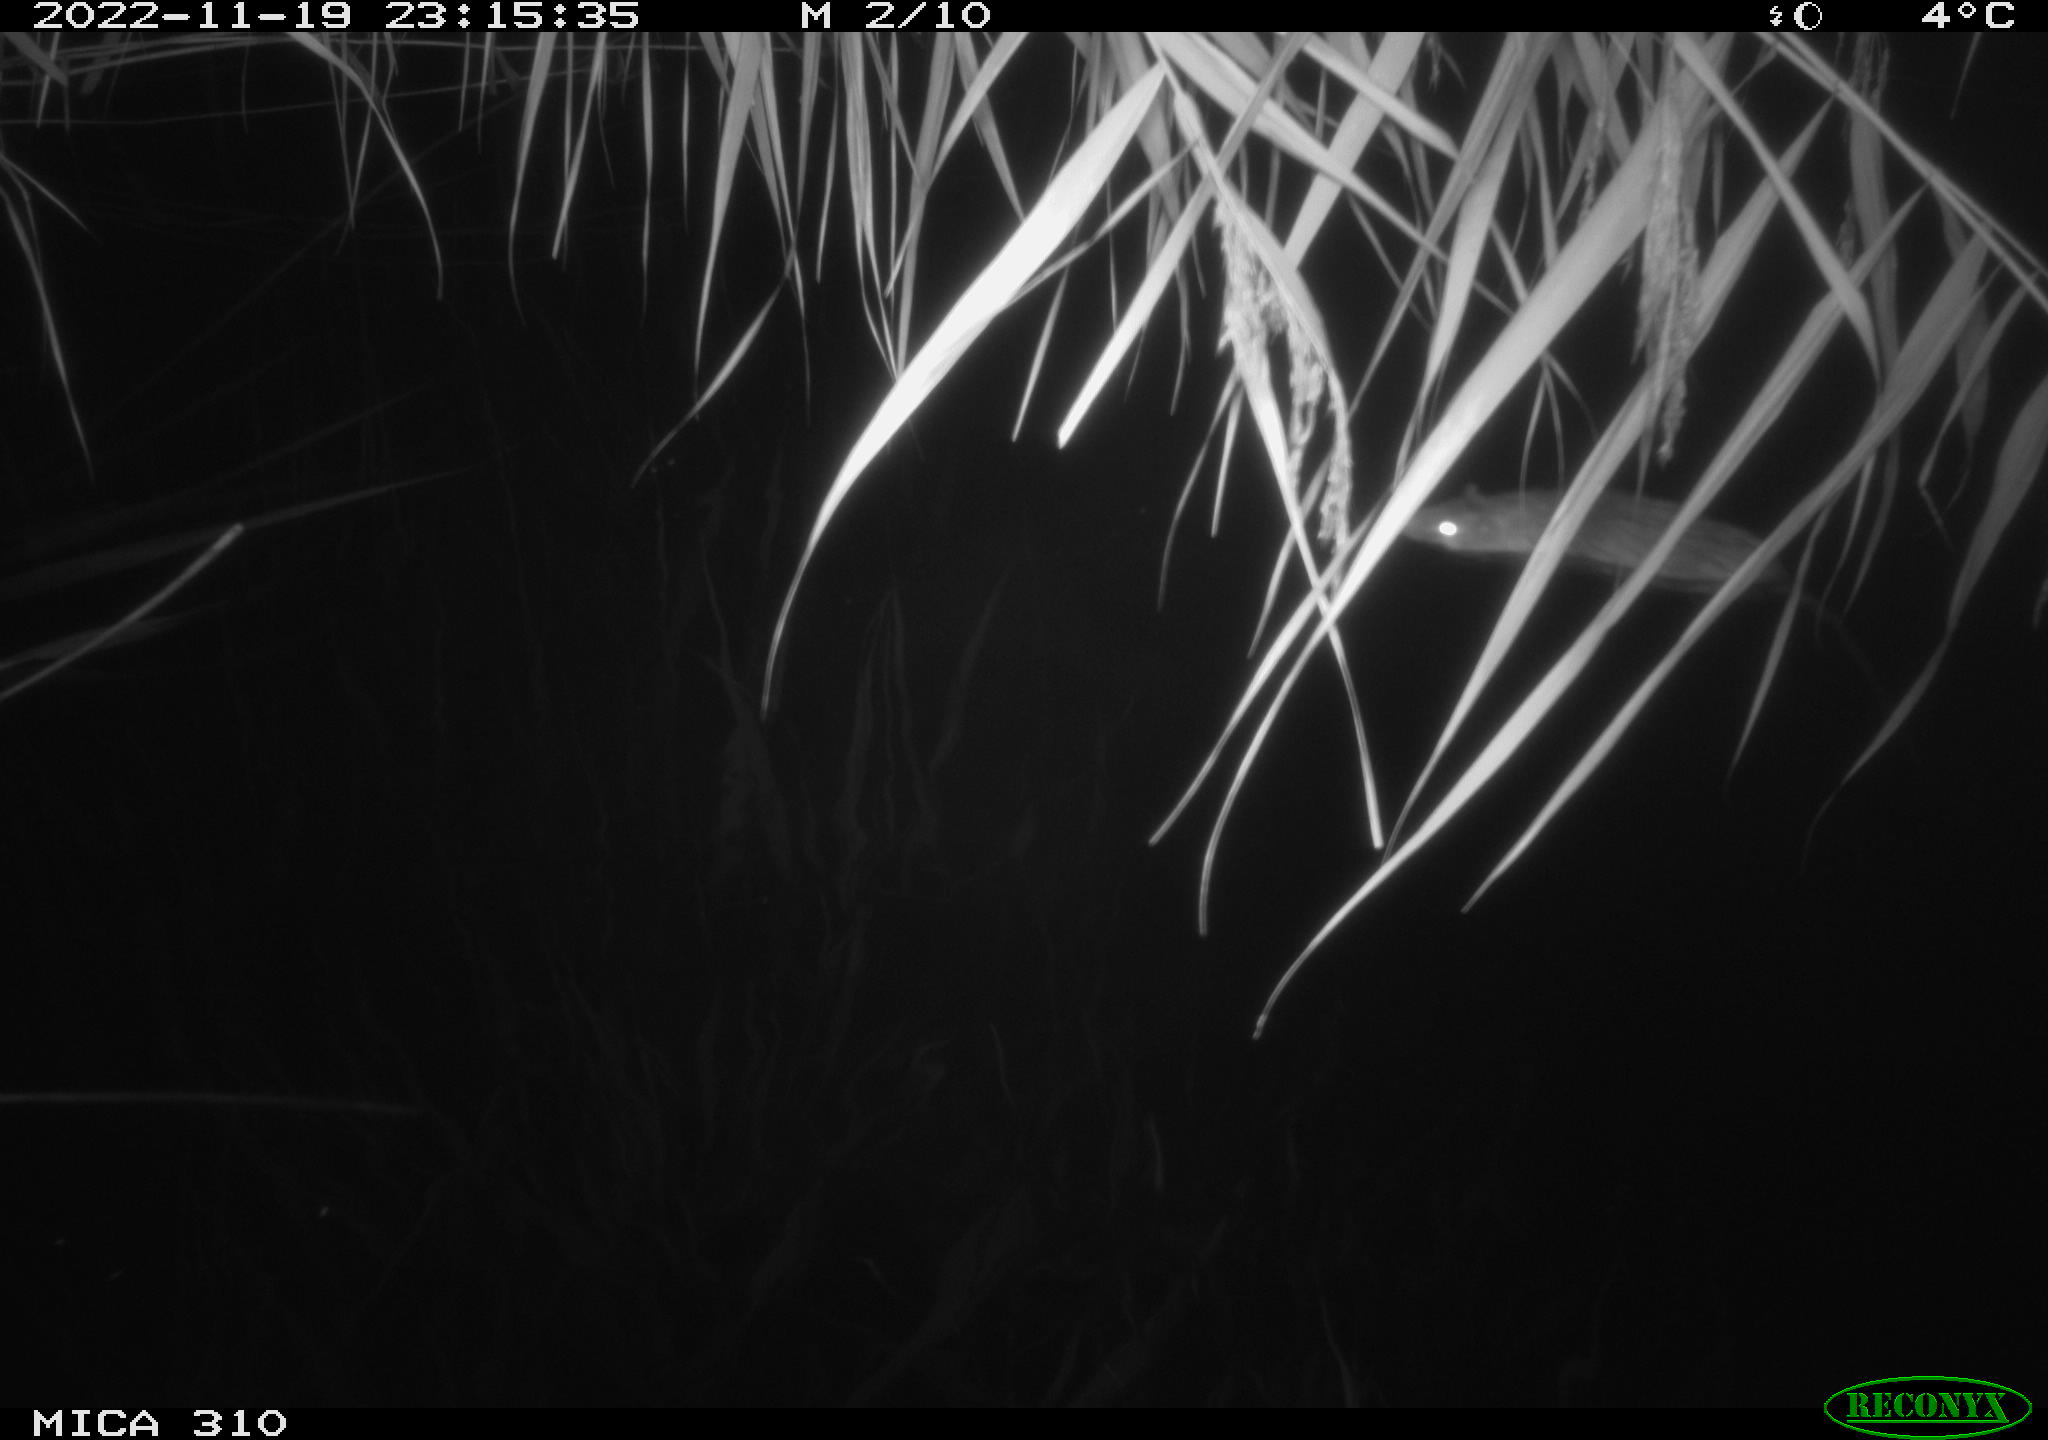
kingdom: Animalia
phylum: Chordata
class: Mammalia
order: Rodentia
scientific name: Rodentia
